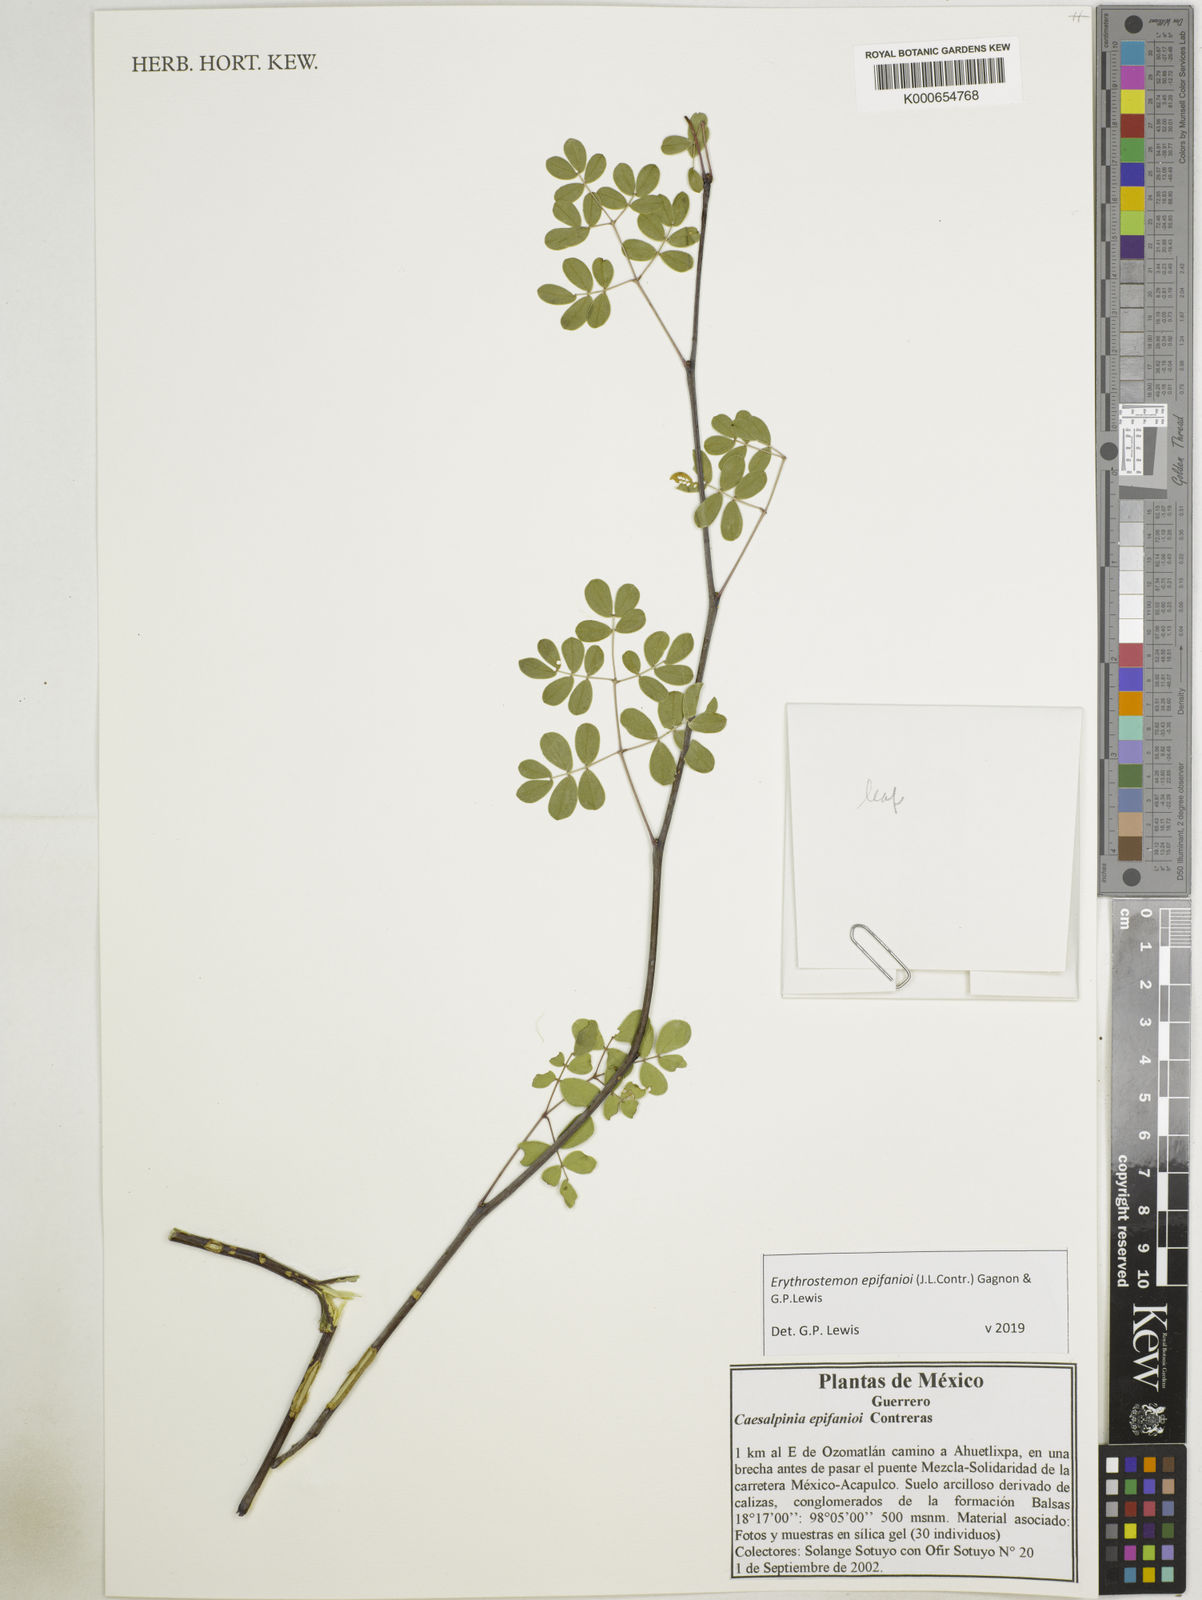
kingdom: Plantae
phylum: Tracheophyta
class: Magnoliopsida
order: Fabales
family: Fabaceae
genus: Erythrostemon
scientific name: Erythrostemon epifanioi
